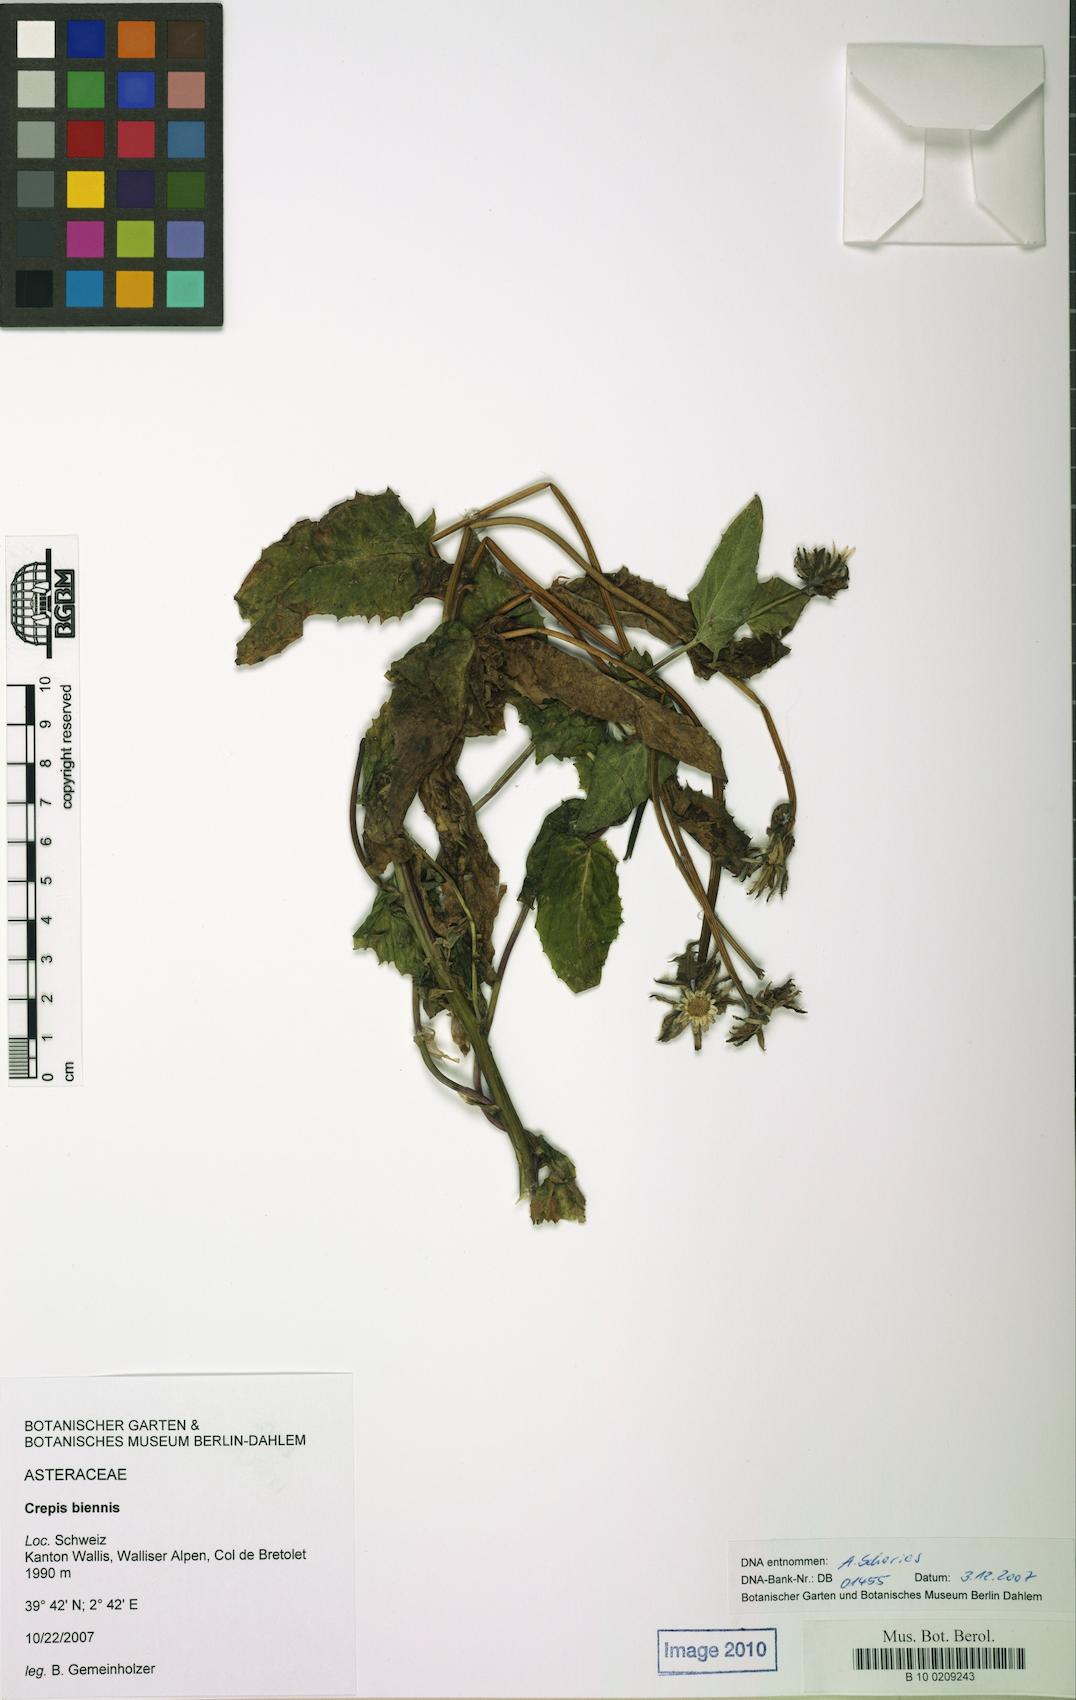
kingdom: Plantae
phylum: Tracheophyta
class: Magnoliopsida
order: Asterales
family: Asteraceae
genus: Crepis
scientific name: Crepis biennis
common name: Rough hawk's-beard
